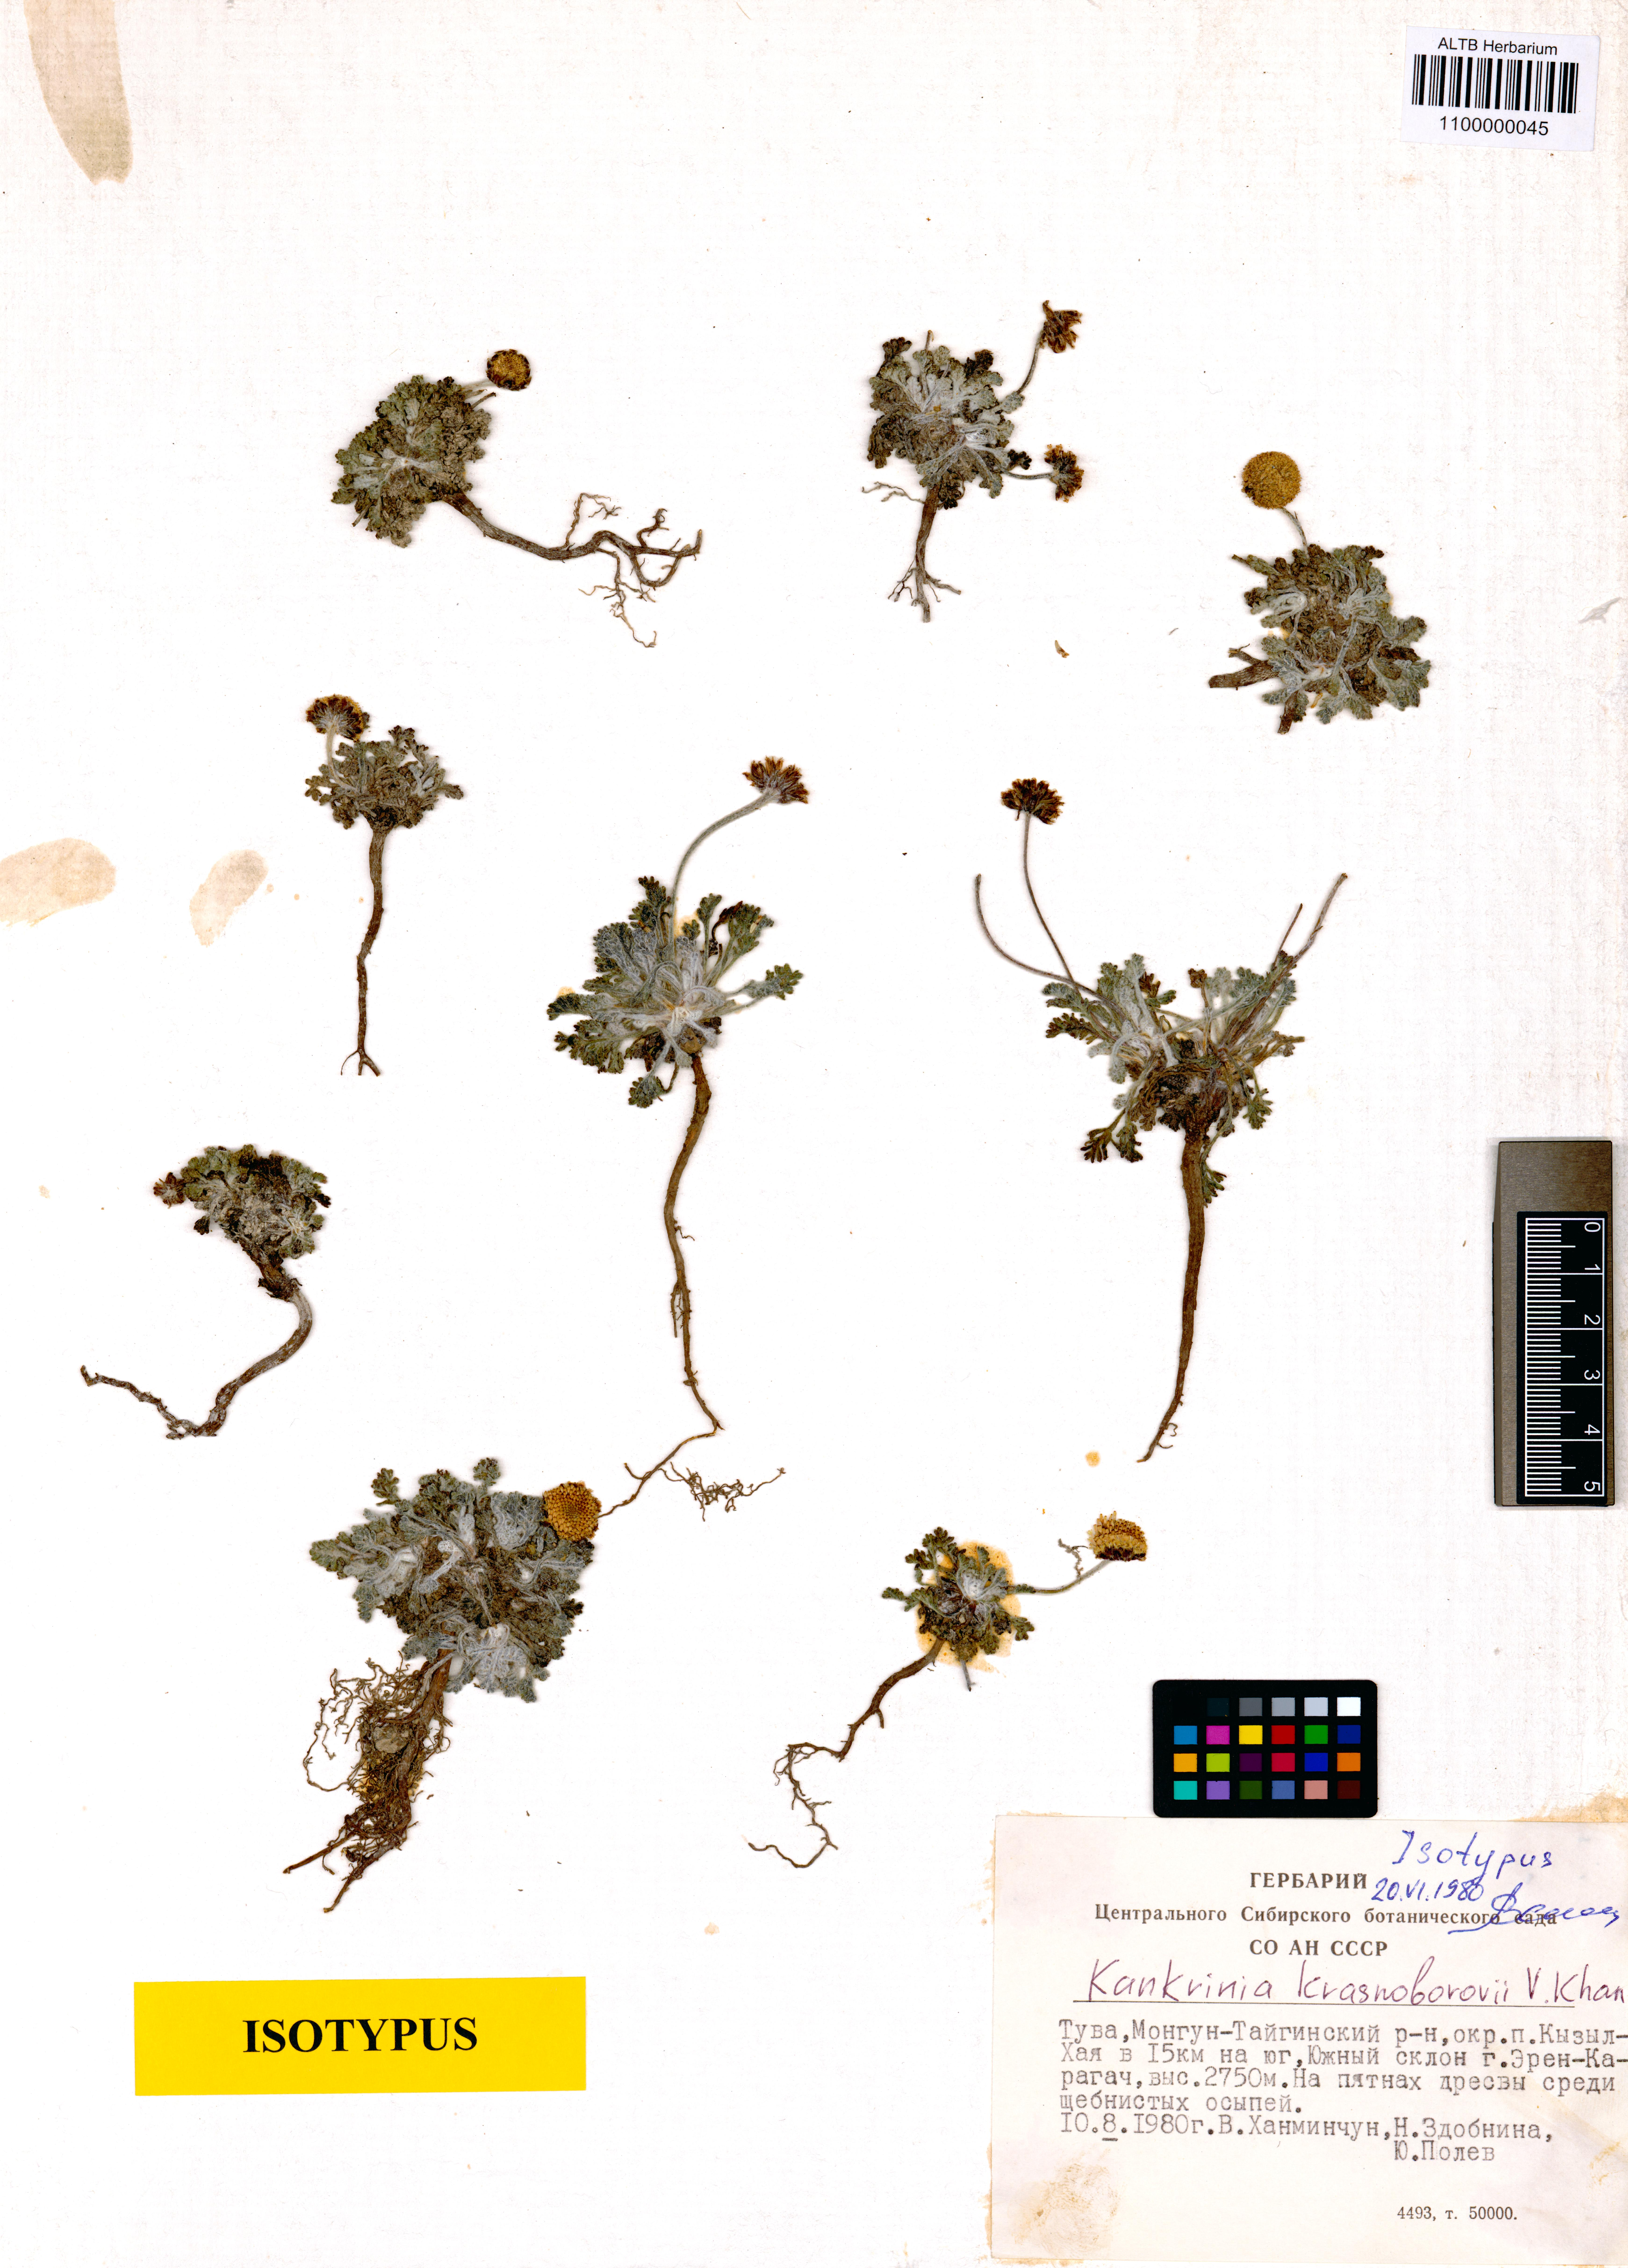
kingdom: Plantae
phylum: Tracheophyta
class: Magnoliopsida
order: Asterales
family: Asteraceae
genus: Cancrinia
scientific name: Cancrinia krasnoborovii
